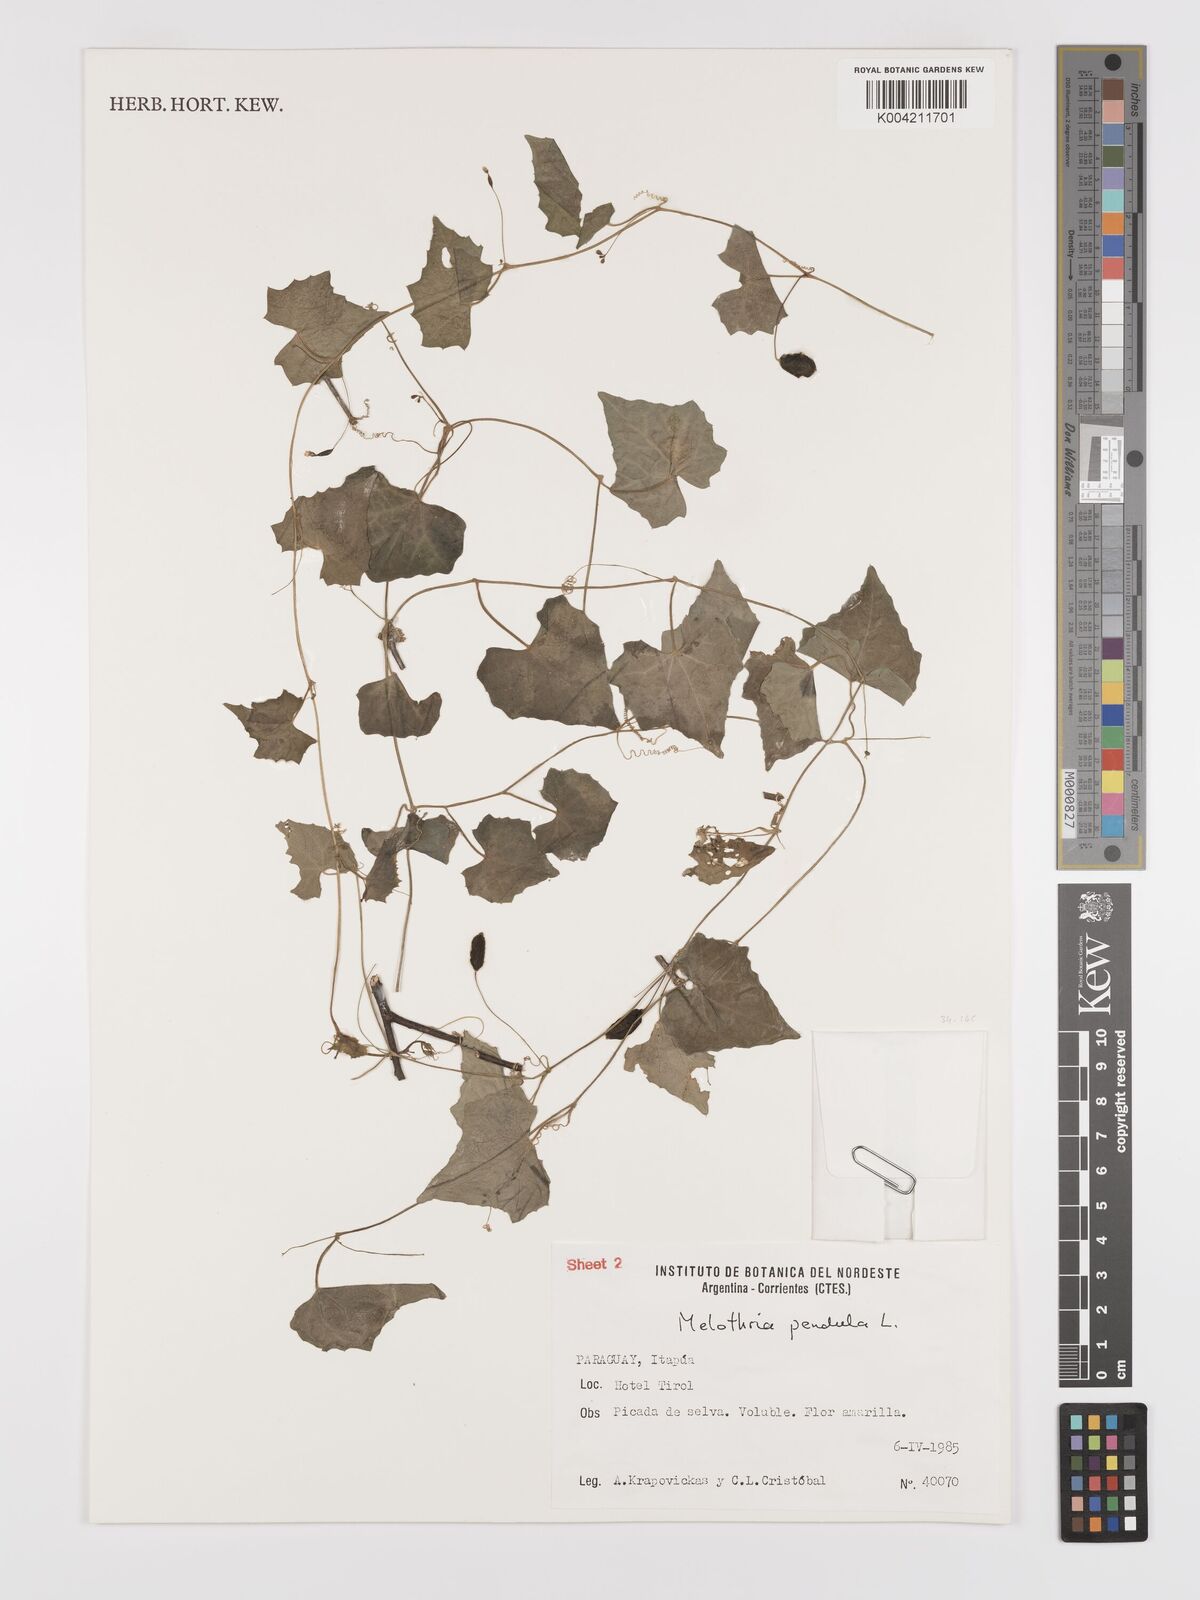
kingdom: Plantae
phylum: Tracheophyta
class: Magnoliopsida
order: Cucurbitales
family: Cucurbitaceae
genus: Melothria
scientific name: Melothria
